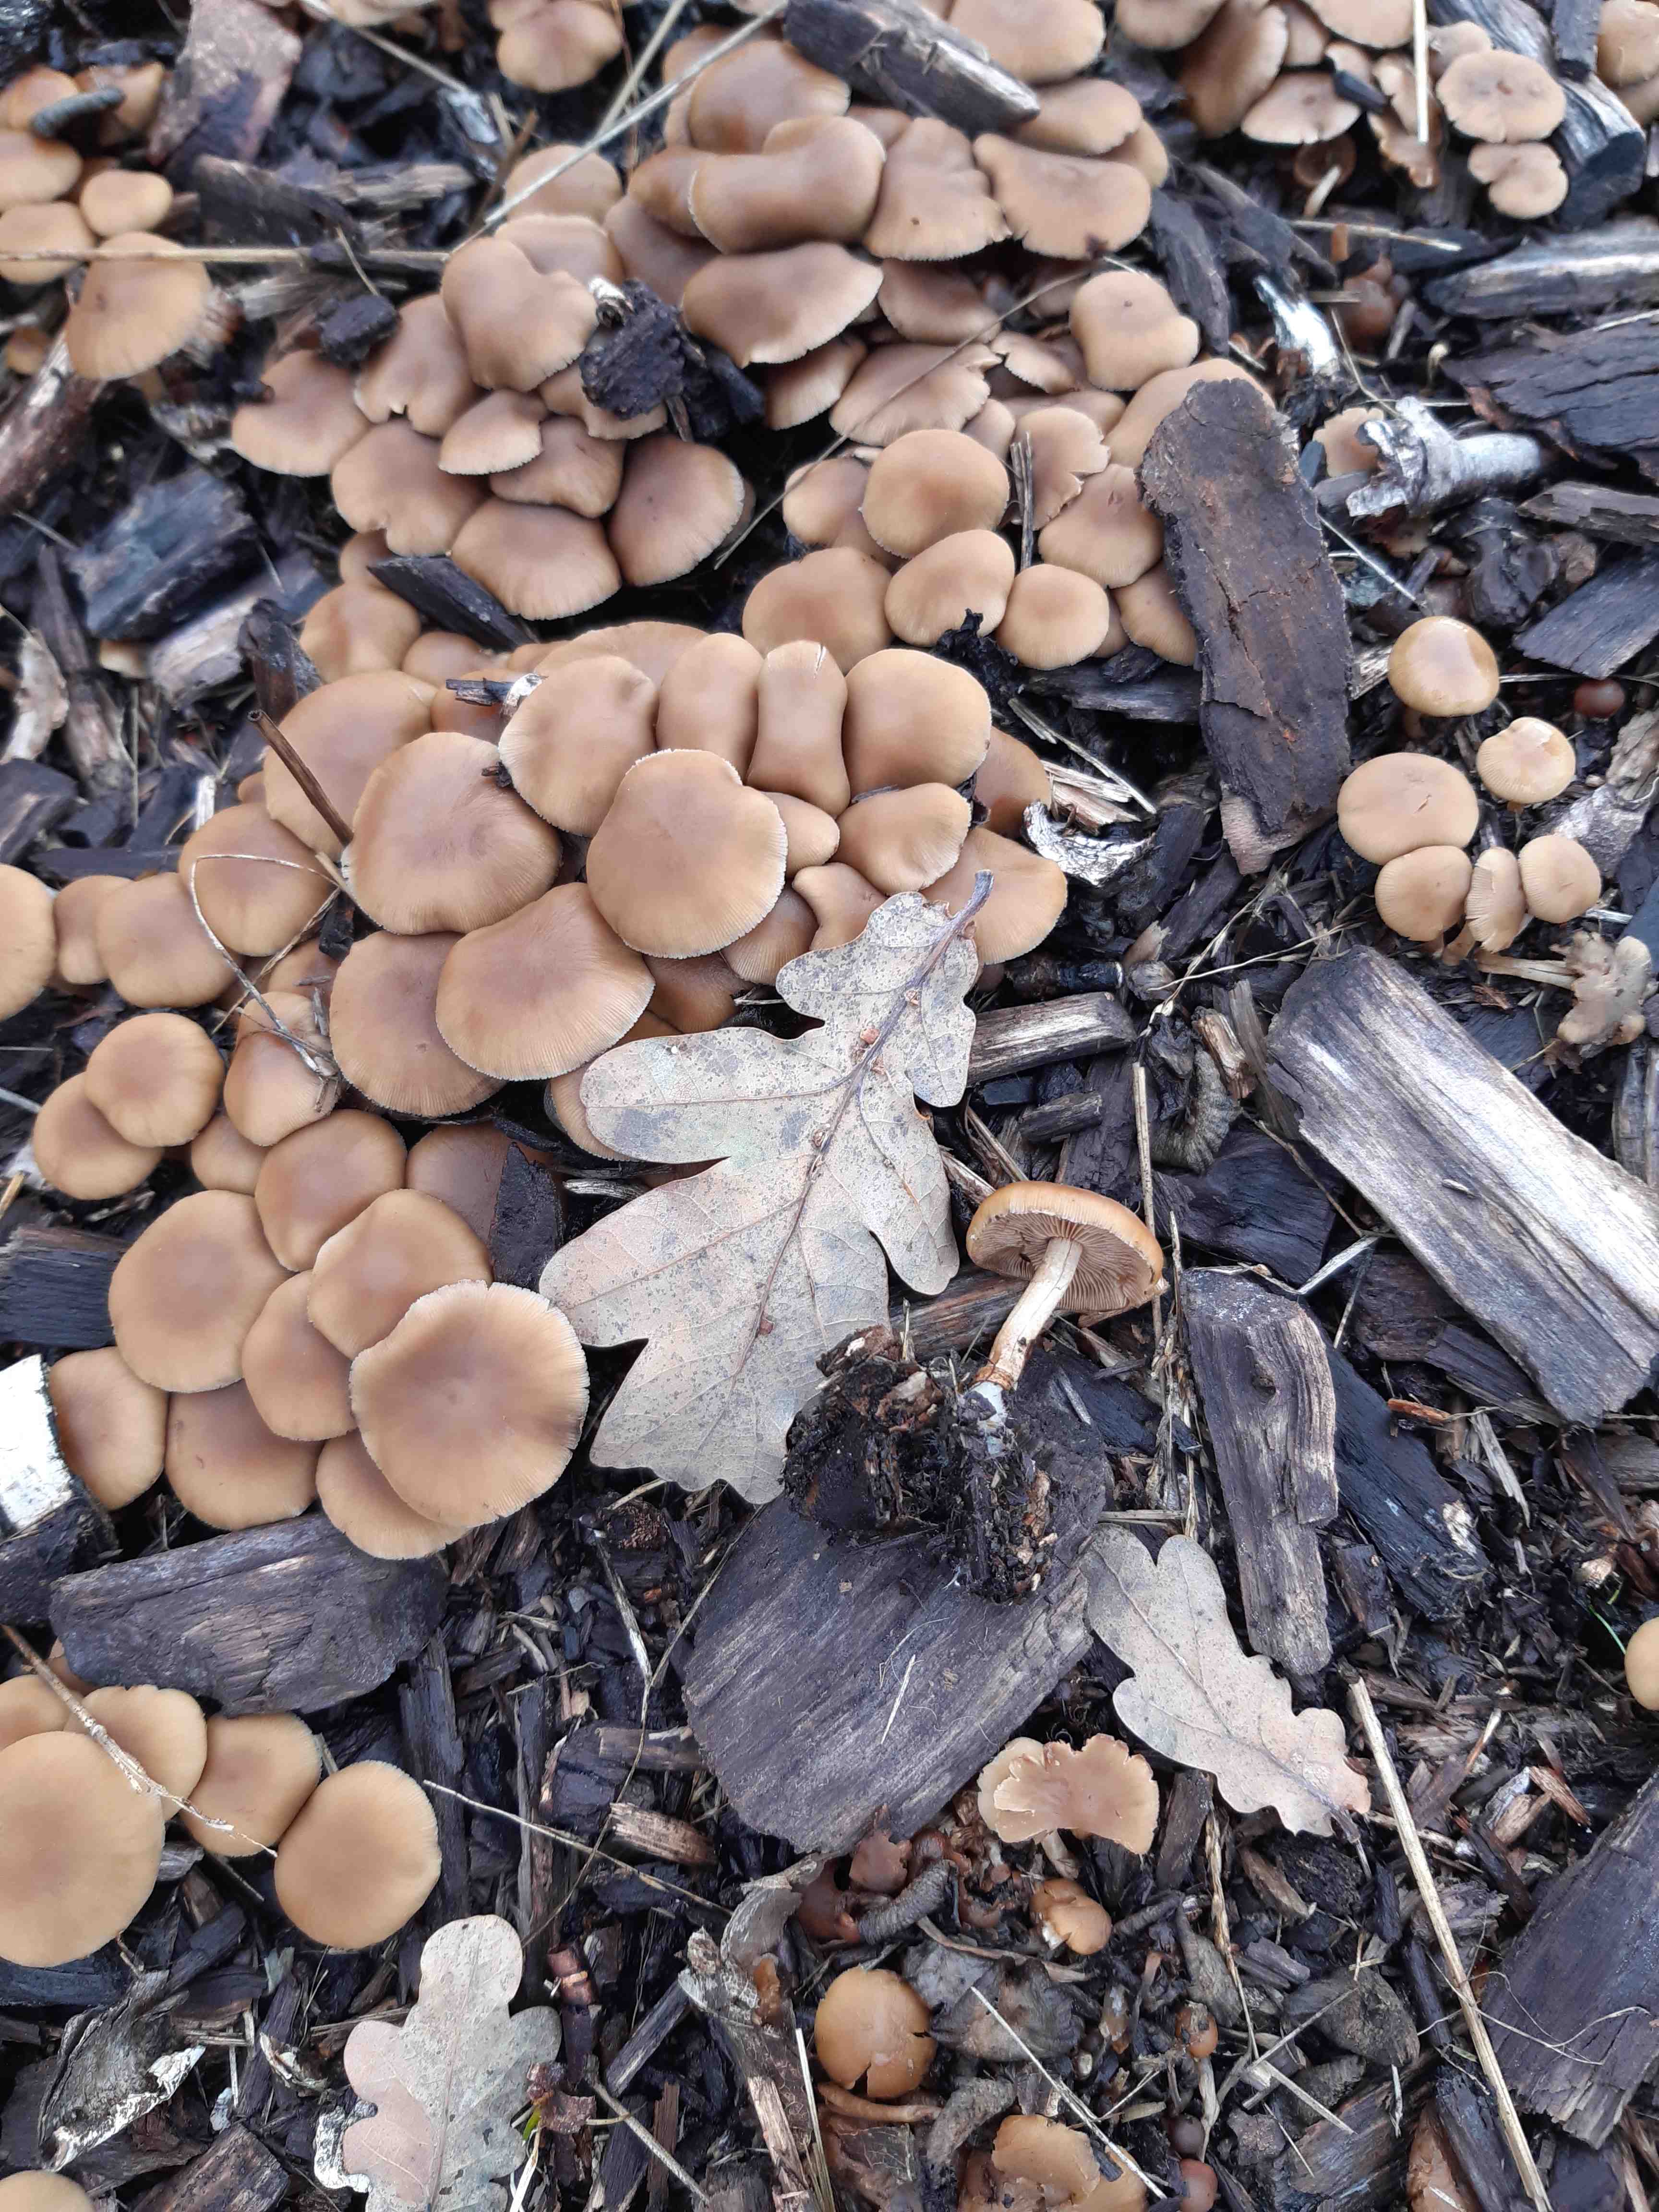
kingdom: Fungi
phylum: Basidiomycota
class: Agaricomycetes
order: Agaricales
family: Psathyrellaceae
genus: Psathyrella
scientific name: Psathyrella piluliformis
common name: lysstokket mørkhat
